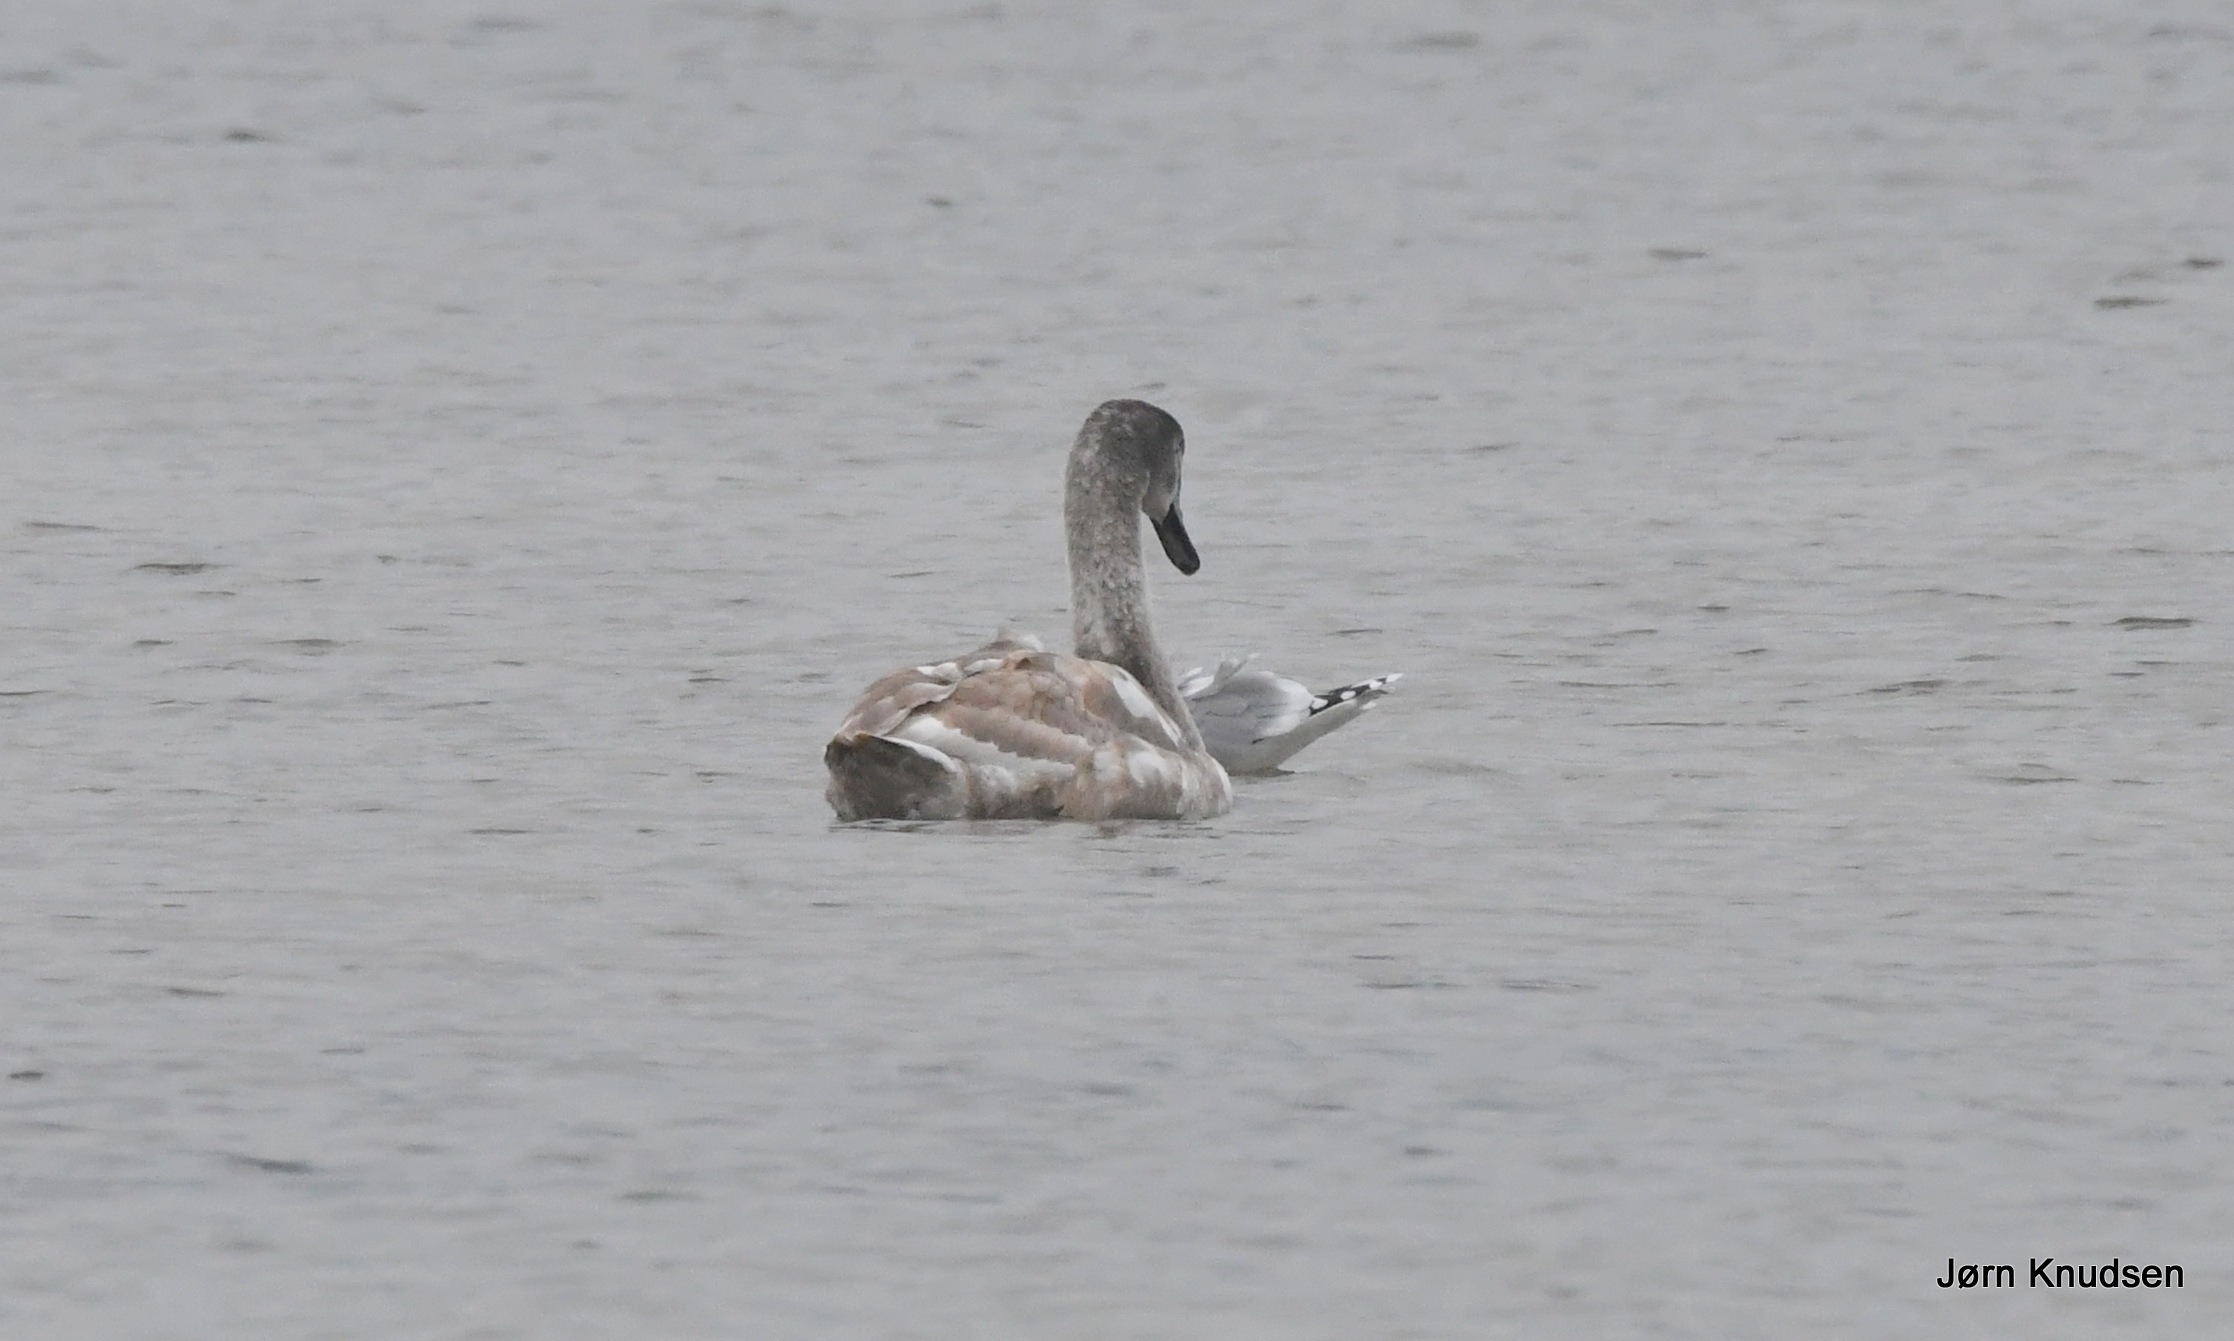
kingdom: Animalia
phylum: Chordata
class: Aves
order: Anseriformes
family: Anatidae
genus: Cygnus
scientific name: Cygnus olor
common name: Knopsvane
